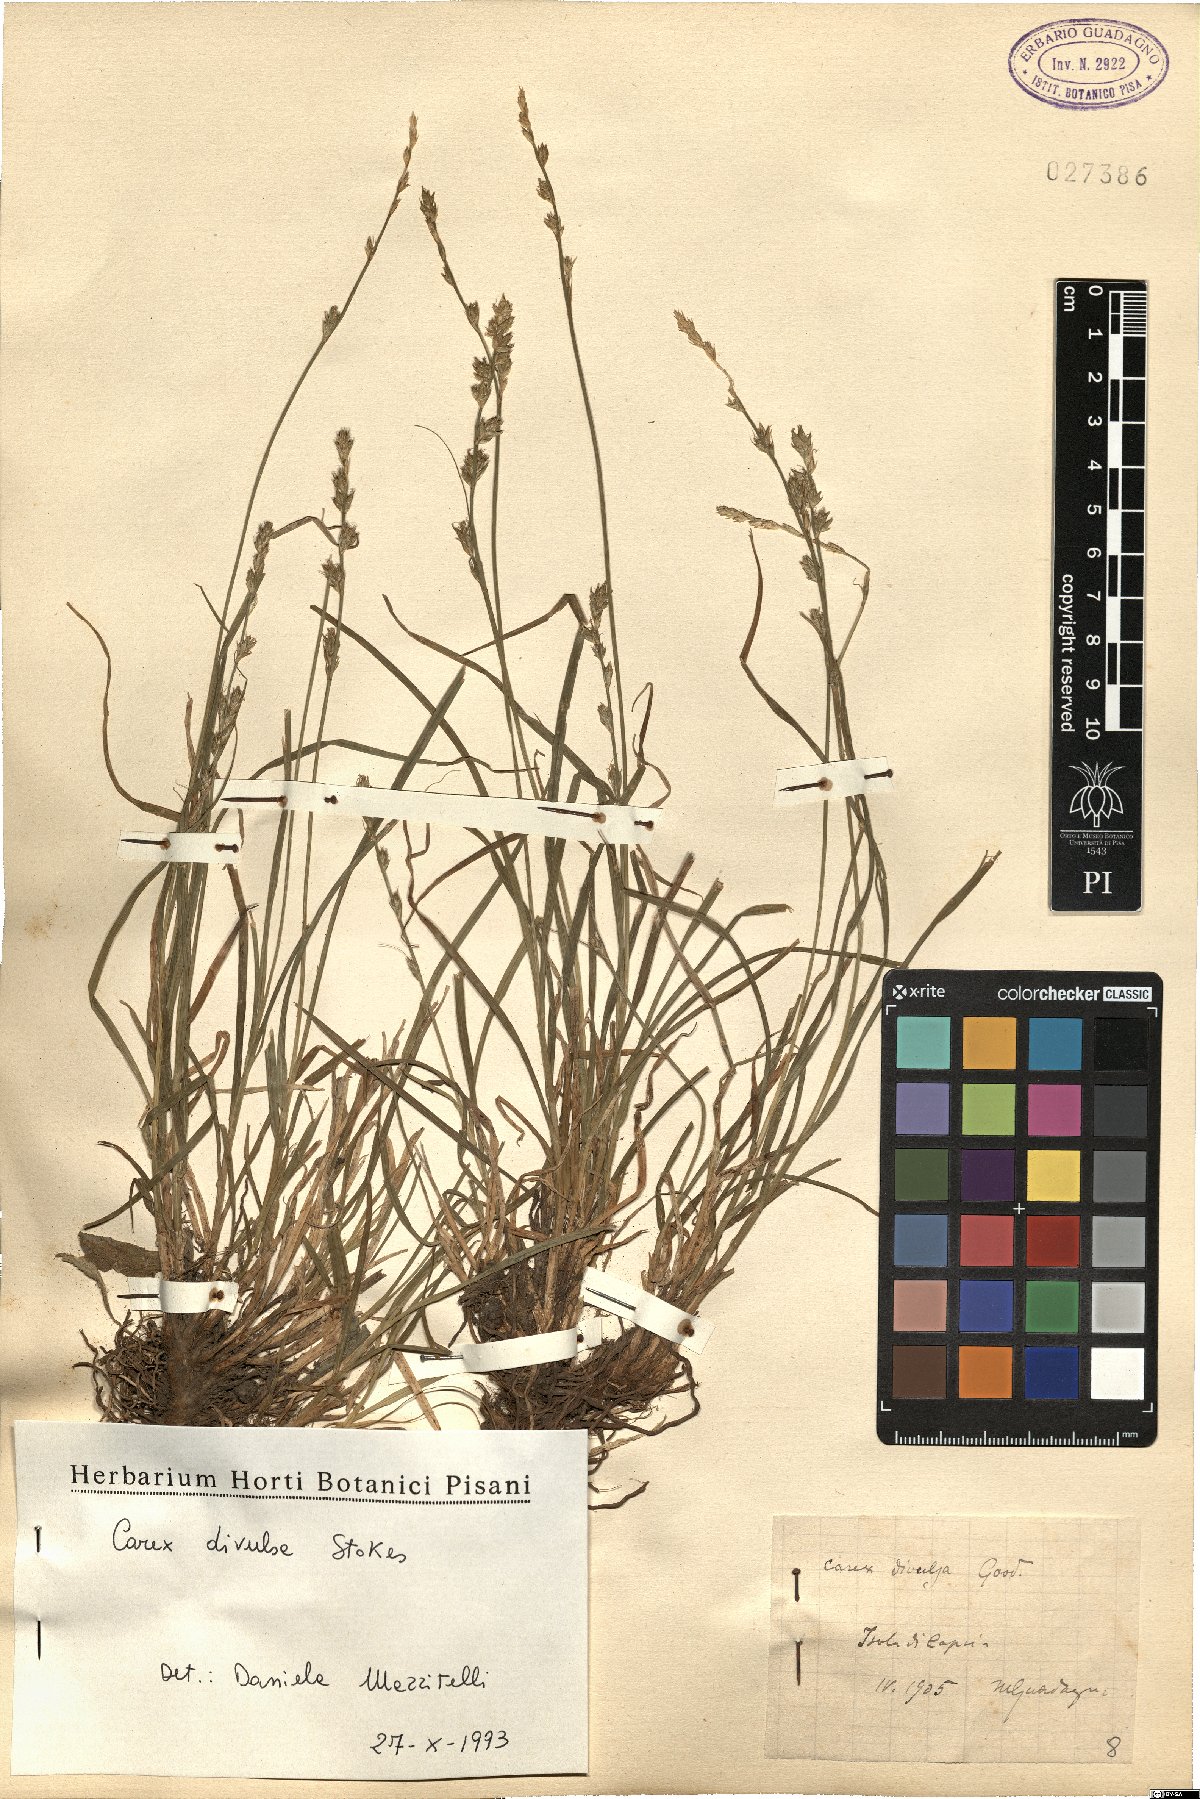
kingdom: Plantae
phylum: Tracheophyta
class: Liliopsida
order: Poales
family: Cyperaceae
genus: Carex
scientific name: Carex divulsa
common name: Grassland sedge
